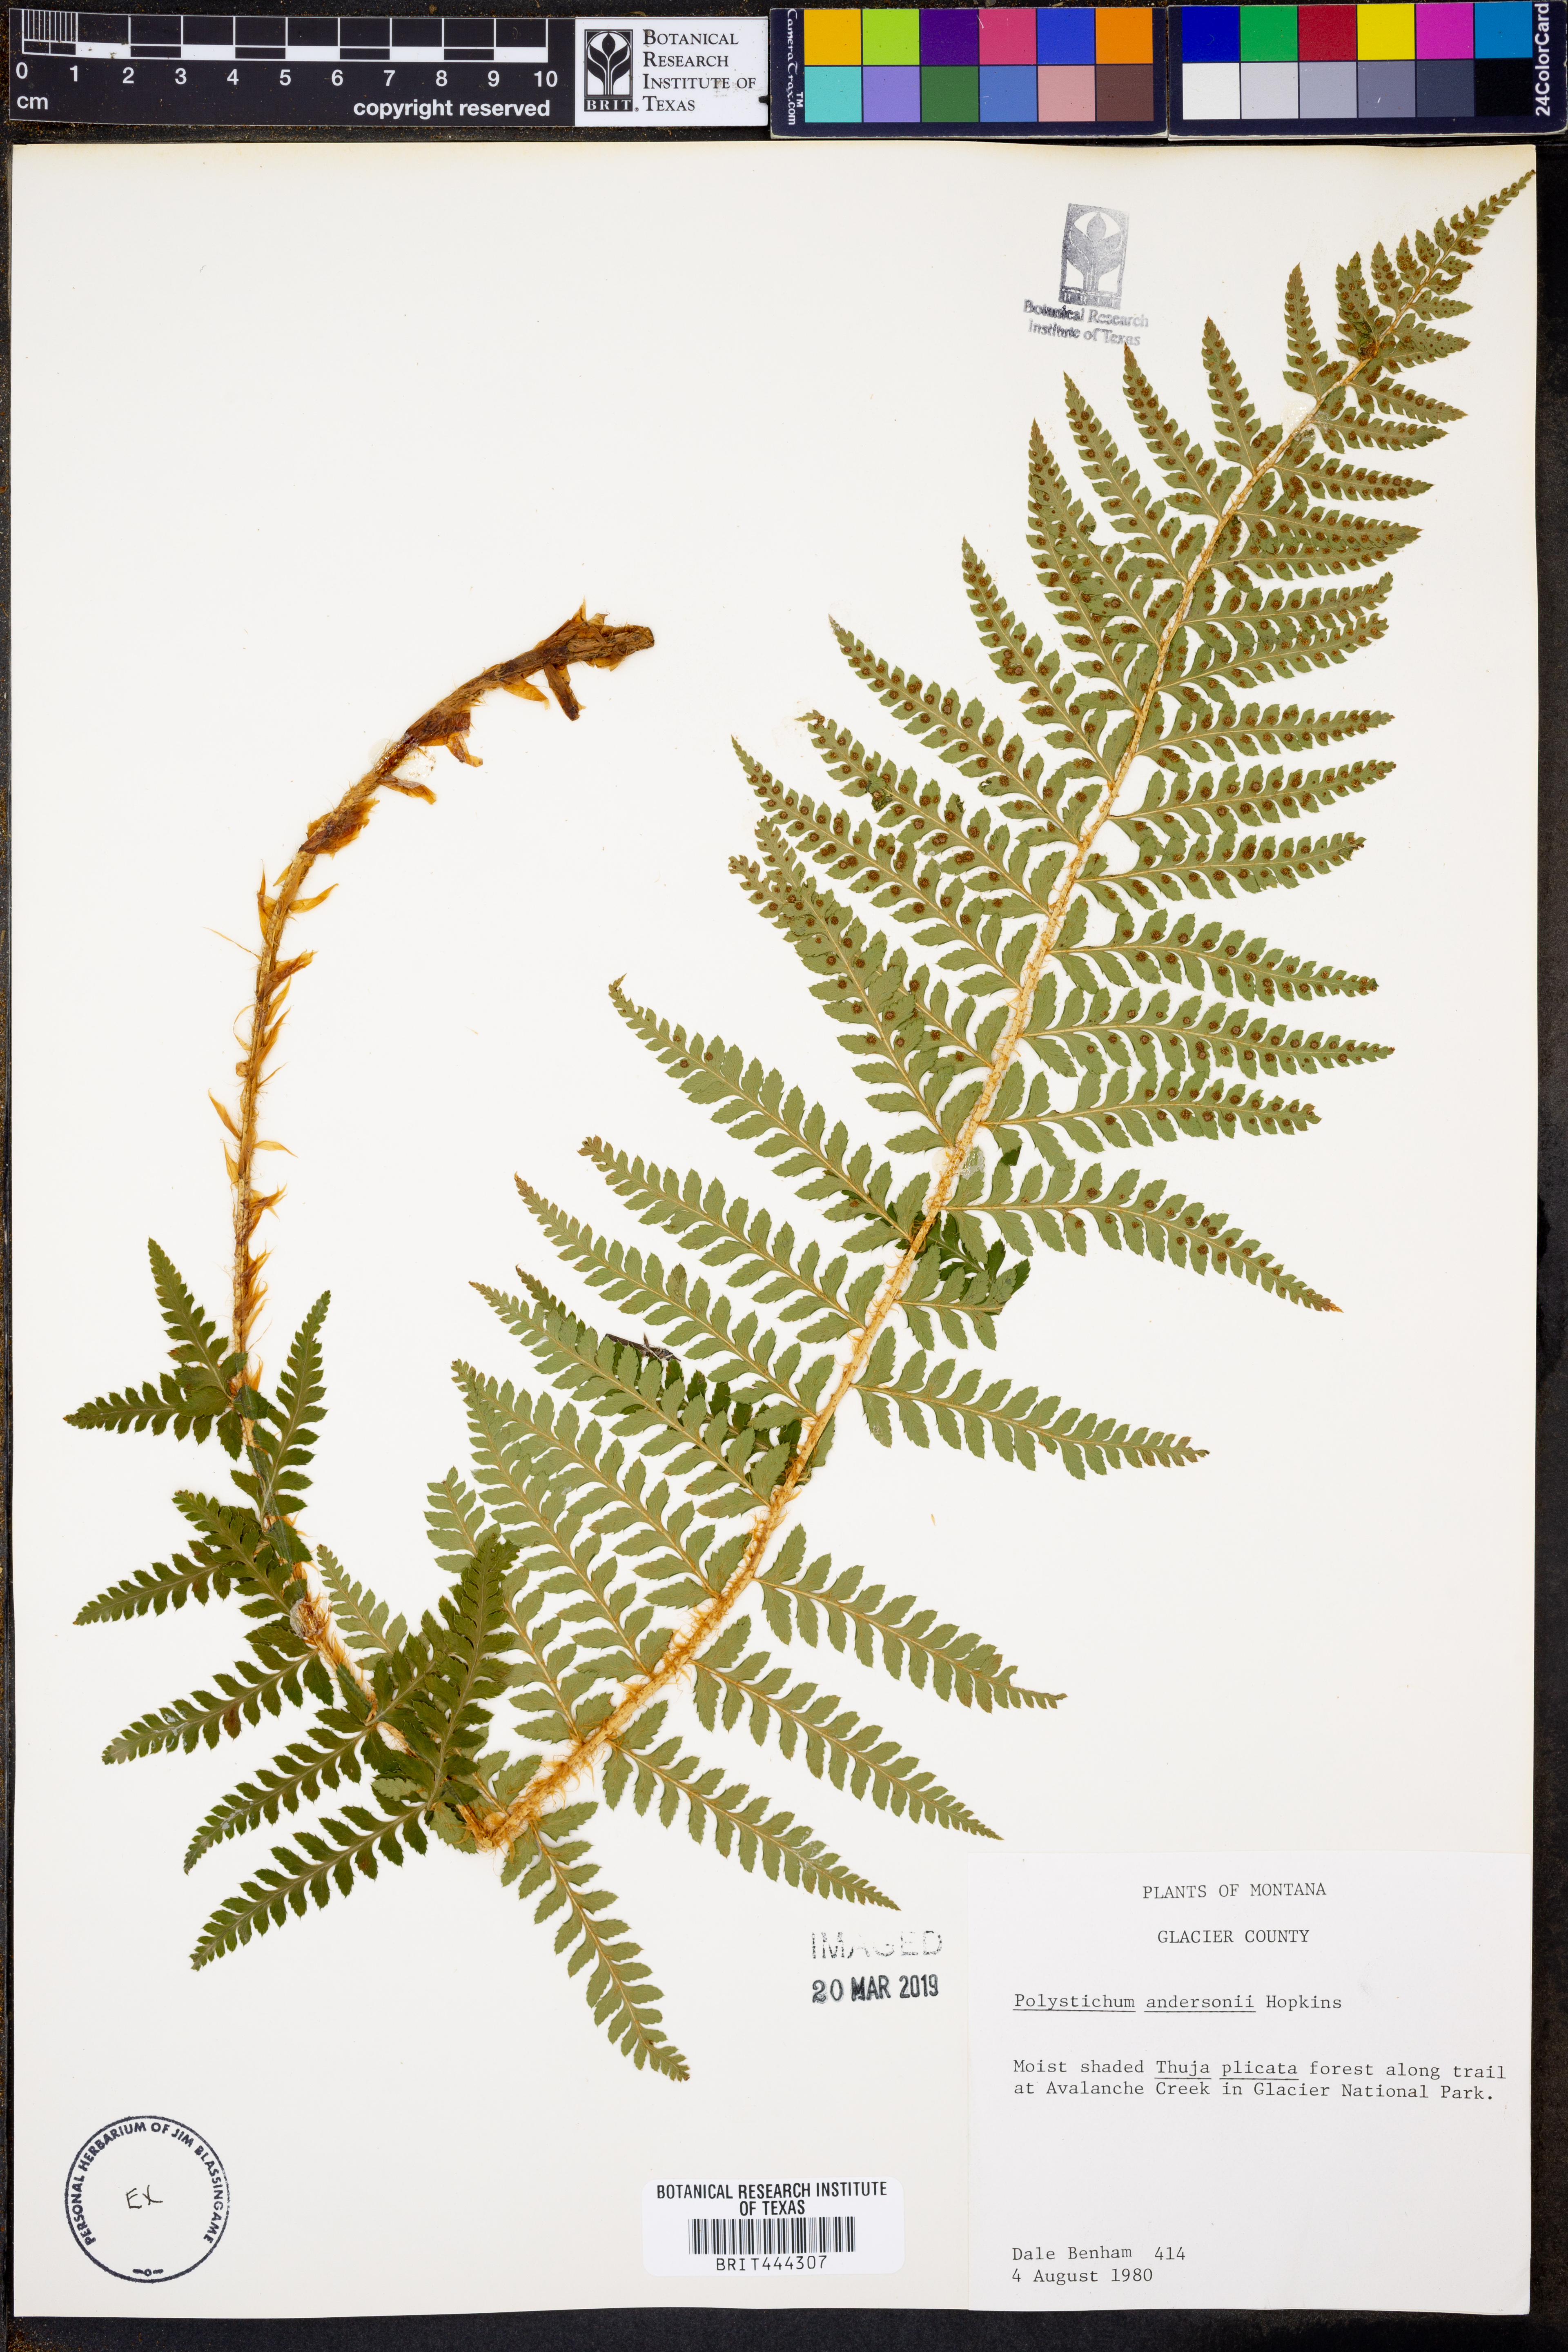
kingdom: Plantae
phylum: Tracheophyta
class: Polypodiopsida
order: Polypodiales
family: Dryopteridaceae
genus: Polystichum
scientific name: Polystichum andersonii
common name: Anderson's holly fern
